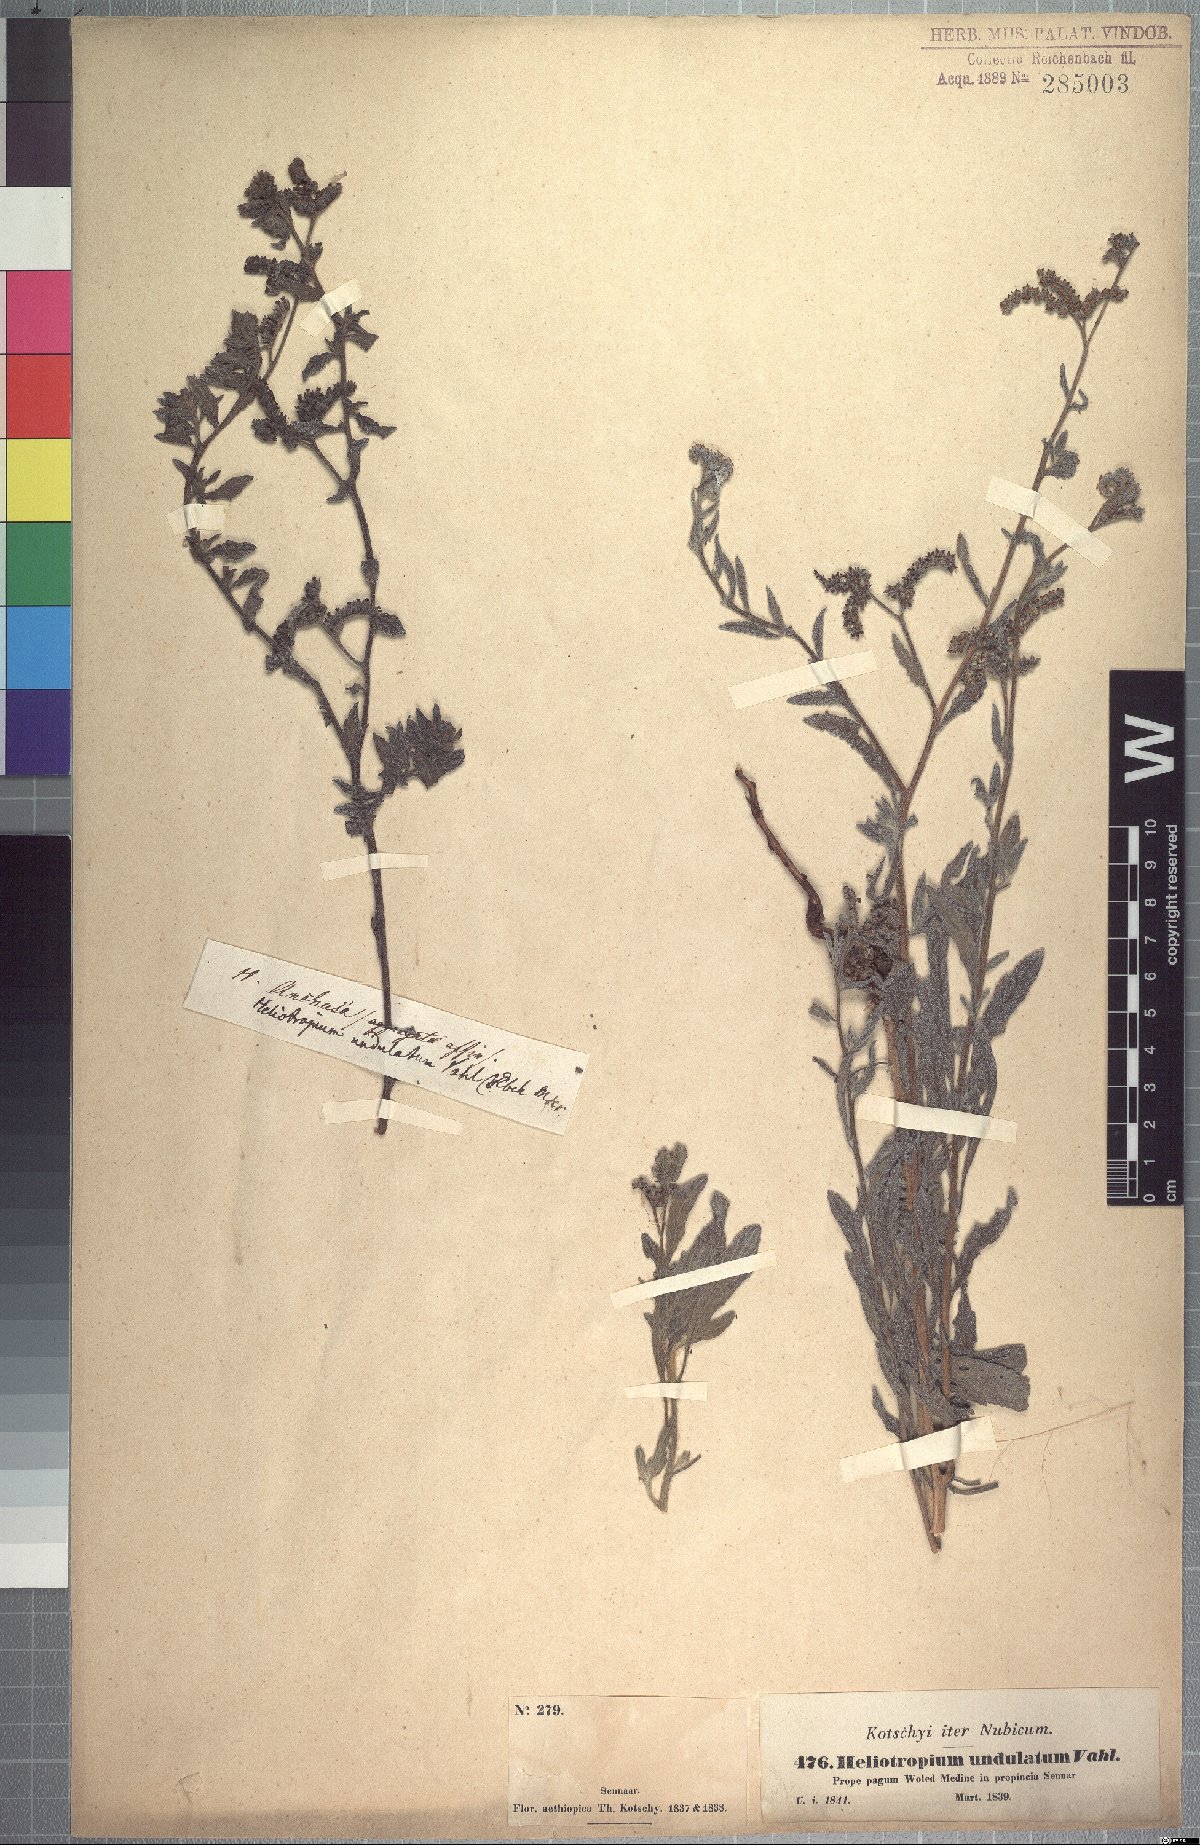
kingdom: Plantae
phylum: Tracheophyta
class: Magnoliopsida
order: Boraginales
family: Heliotropiaceae
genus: Heliotropium
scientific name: Heliotropium bacciferum
